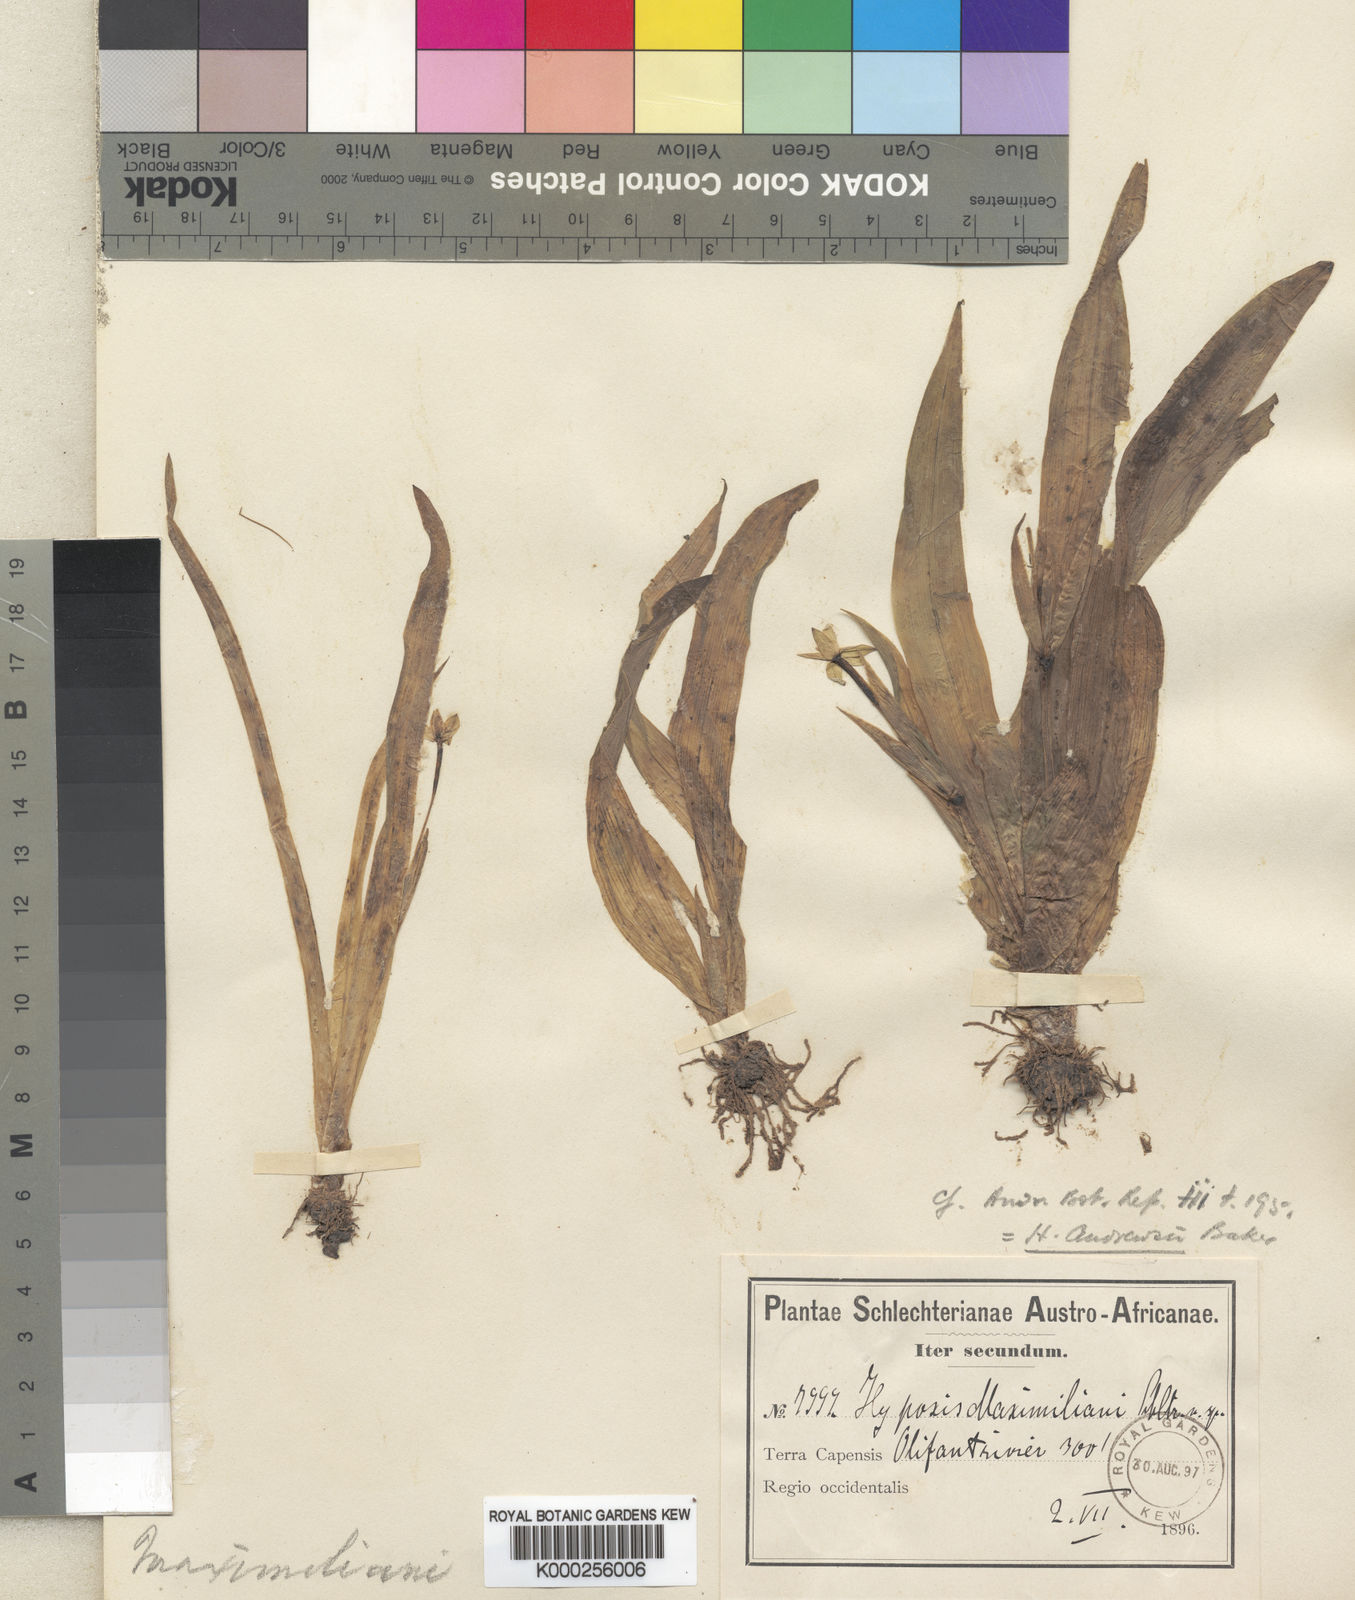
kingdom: Plantae
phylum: Tracheophyta
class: Liliopsida
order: Asparagales
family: Hypoxidaceae
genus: Pauridia
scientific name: Pauridia maximiliani
